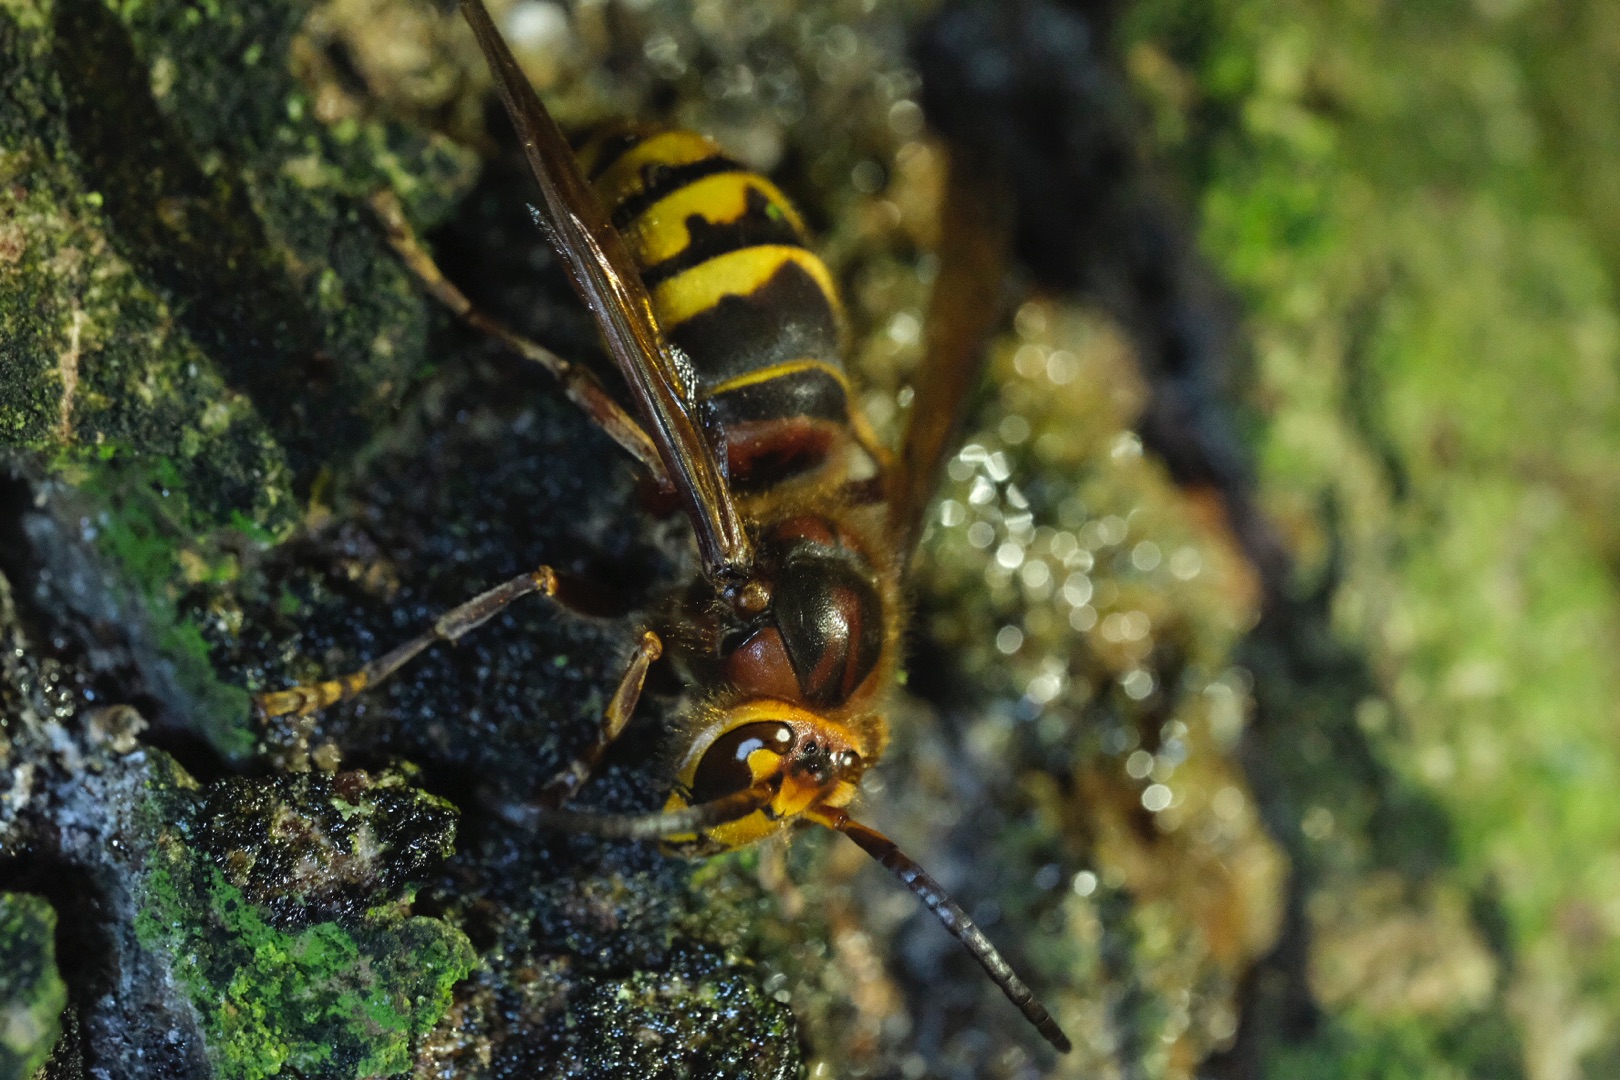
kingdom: Animalia
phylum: Arthropoda
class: Insecta
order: Hymenoptera
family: Vespidae
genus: Vespa
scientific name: Vespa crabro
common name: Stor gedehams
